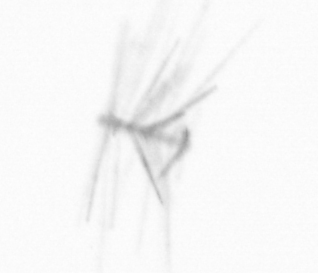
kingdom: Chromista
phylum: Ochrophyta
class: Bacillariophyceae
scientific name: Bacillariophyceae
